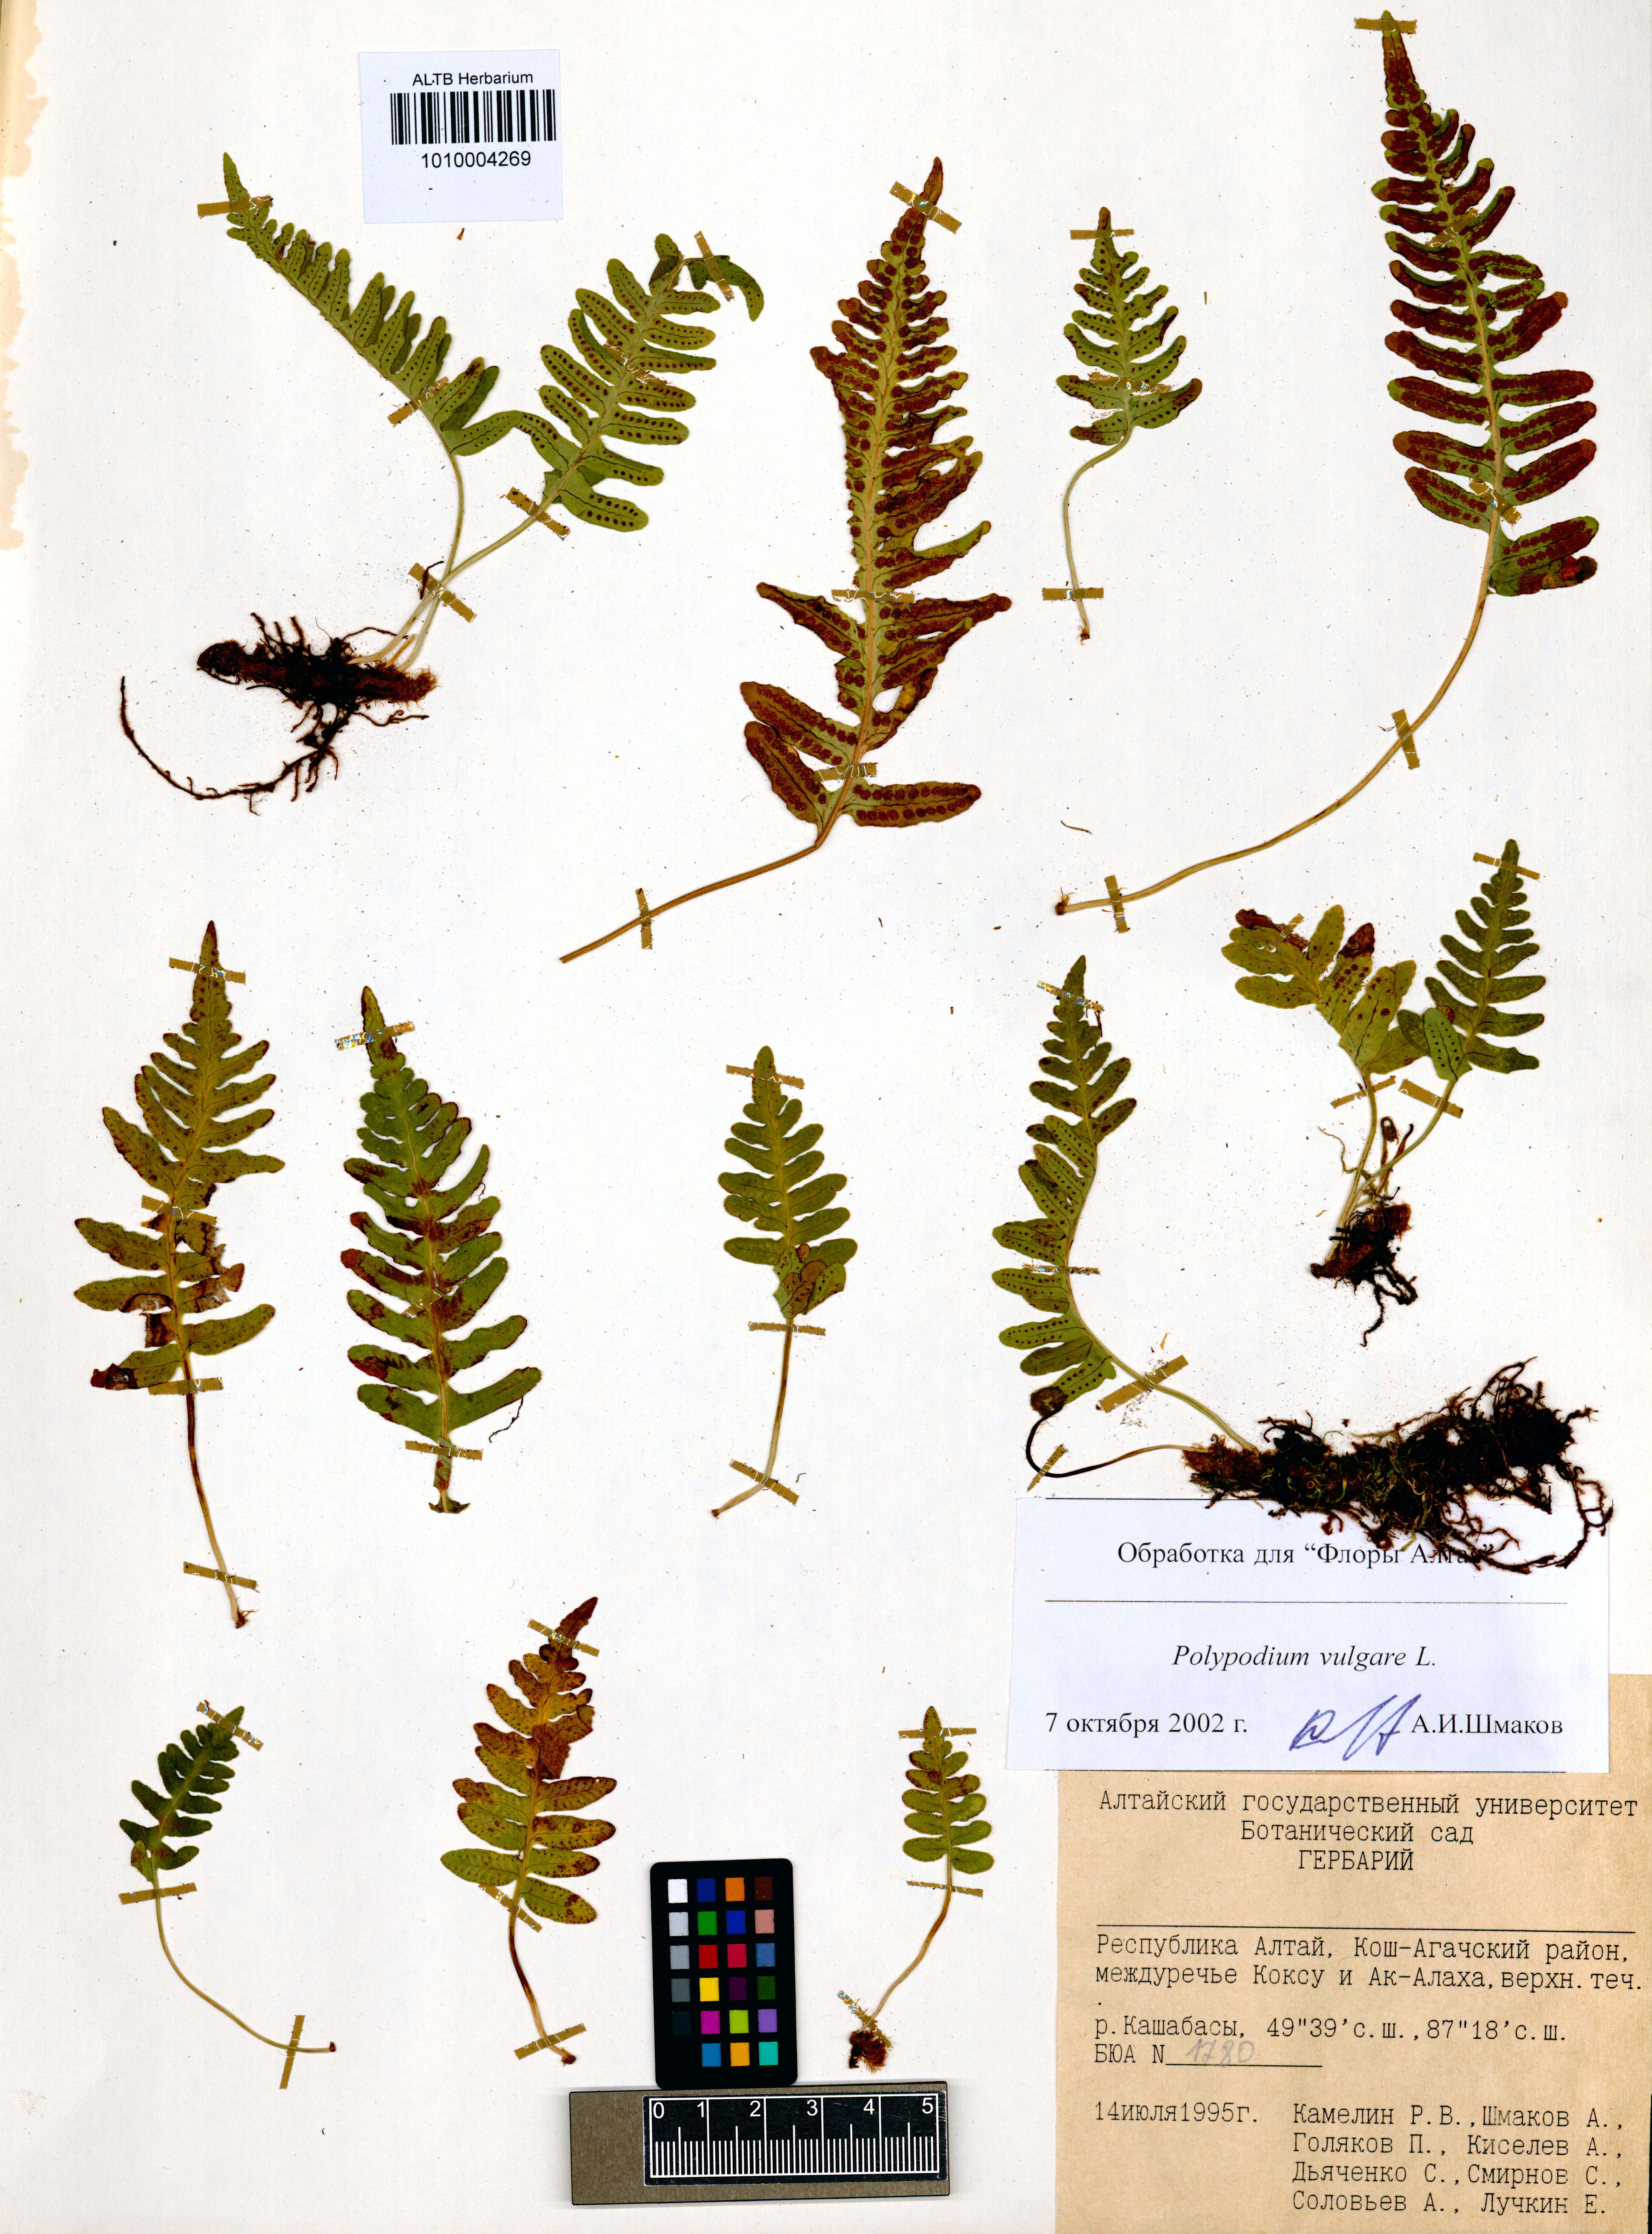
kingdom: Plantae
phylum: Tracheophyta
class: Polypodiopsida
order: Polypodiales
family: Polypodiaceae
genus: Polypodium
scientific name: Polypodium vulgare
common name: Common polypody
